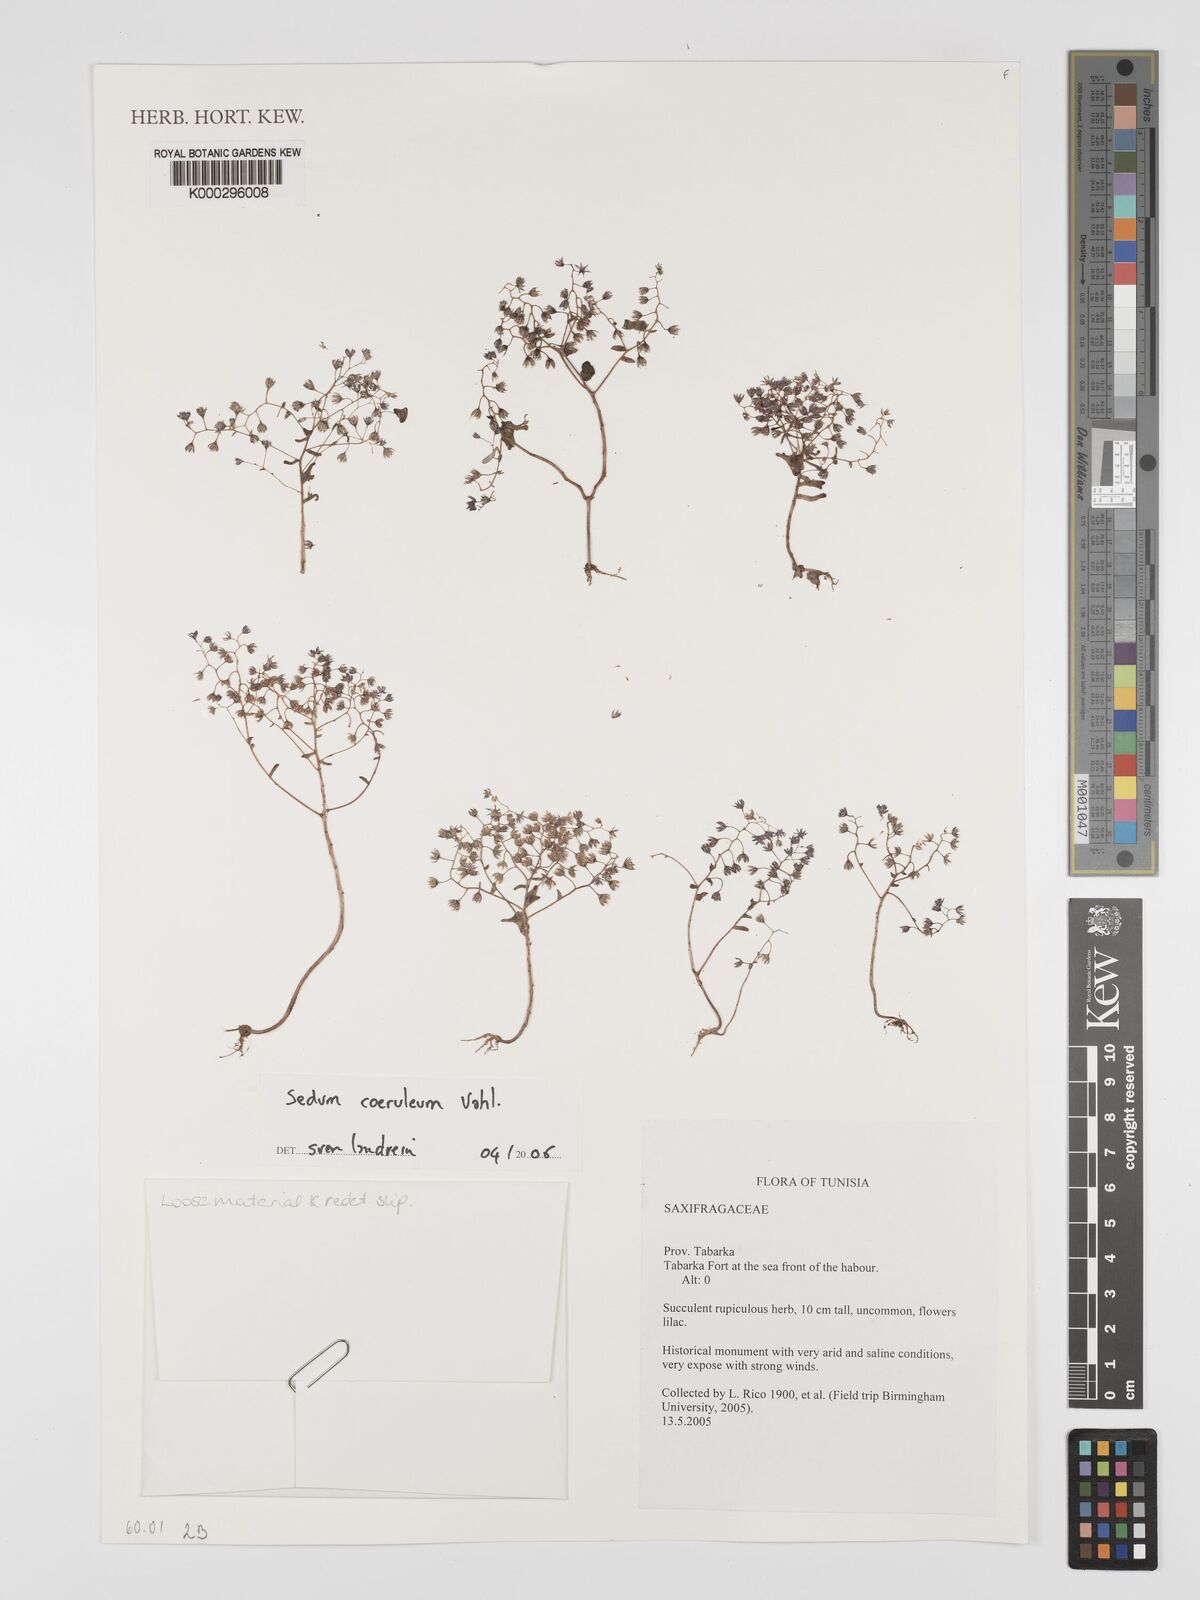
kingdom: Plantae
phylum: Tracheophyta
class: Magnoliopsida
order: Saxifragales
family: Crassulaceae
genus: Sedum
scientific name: Sedum
